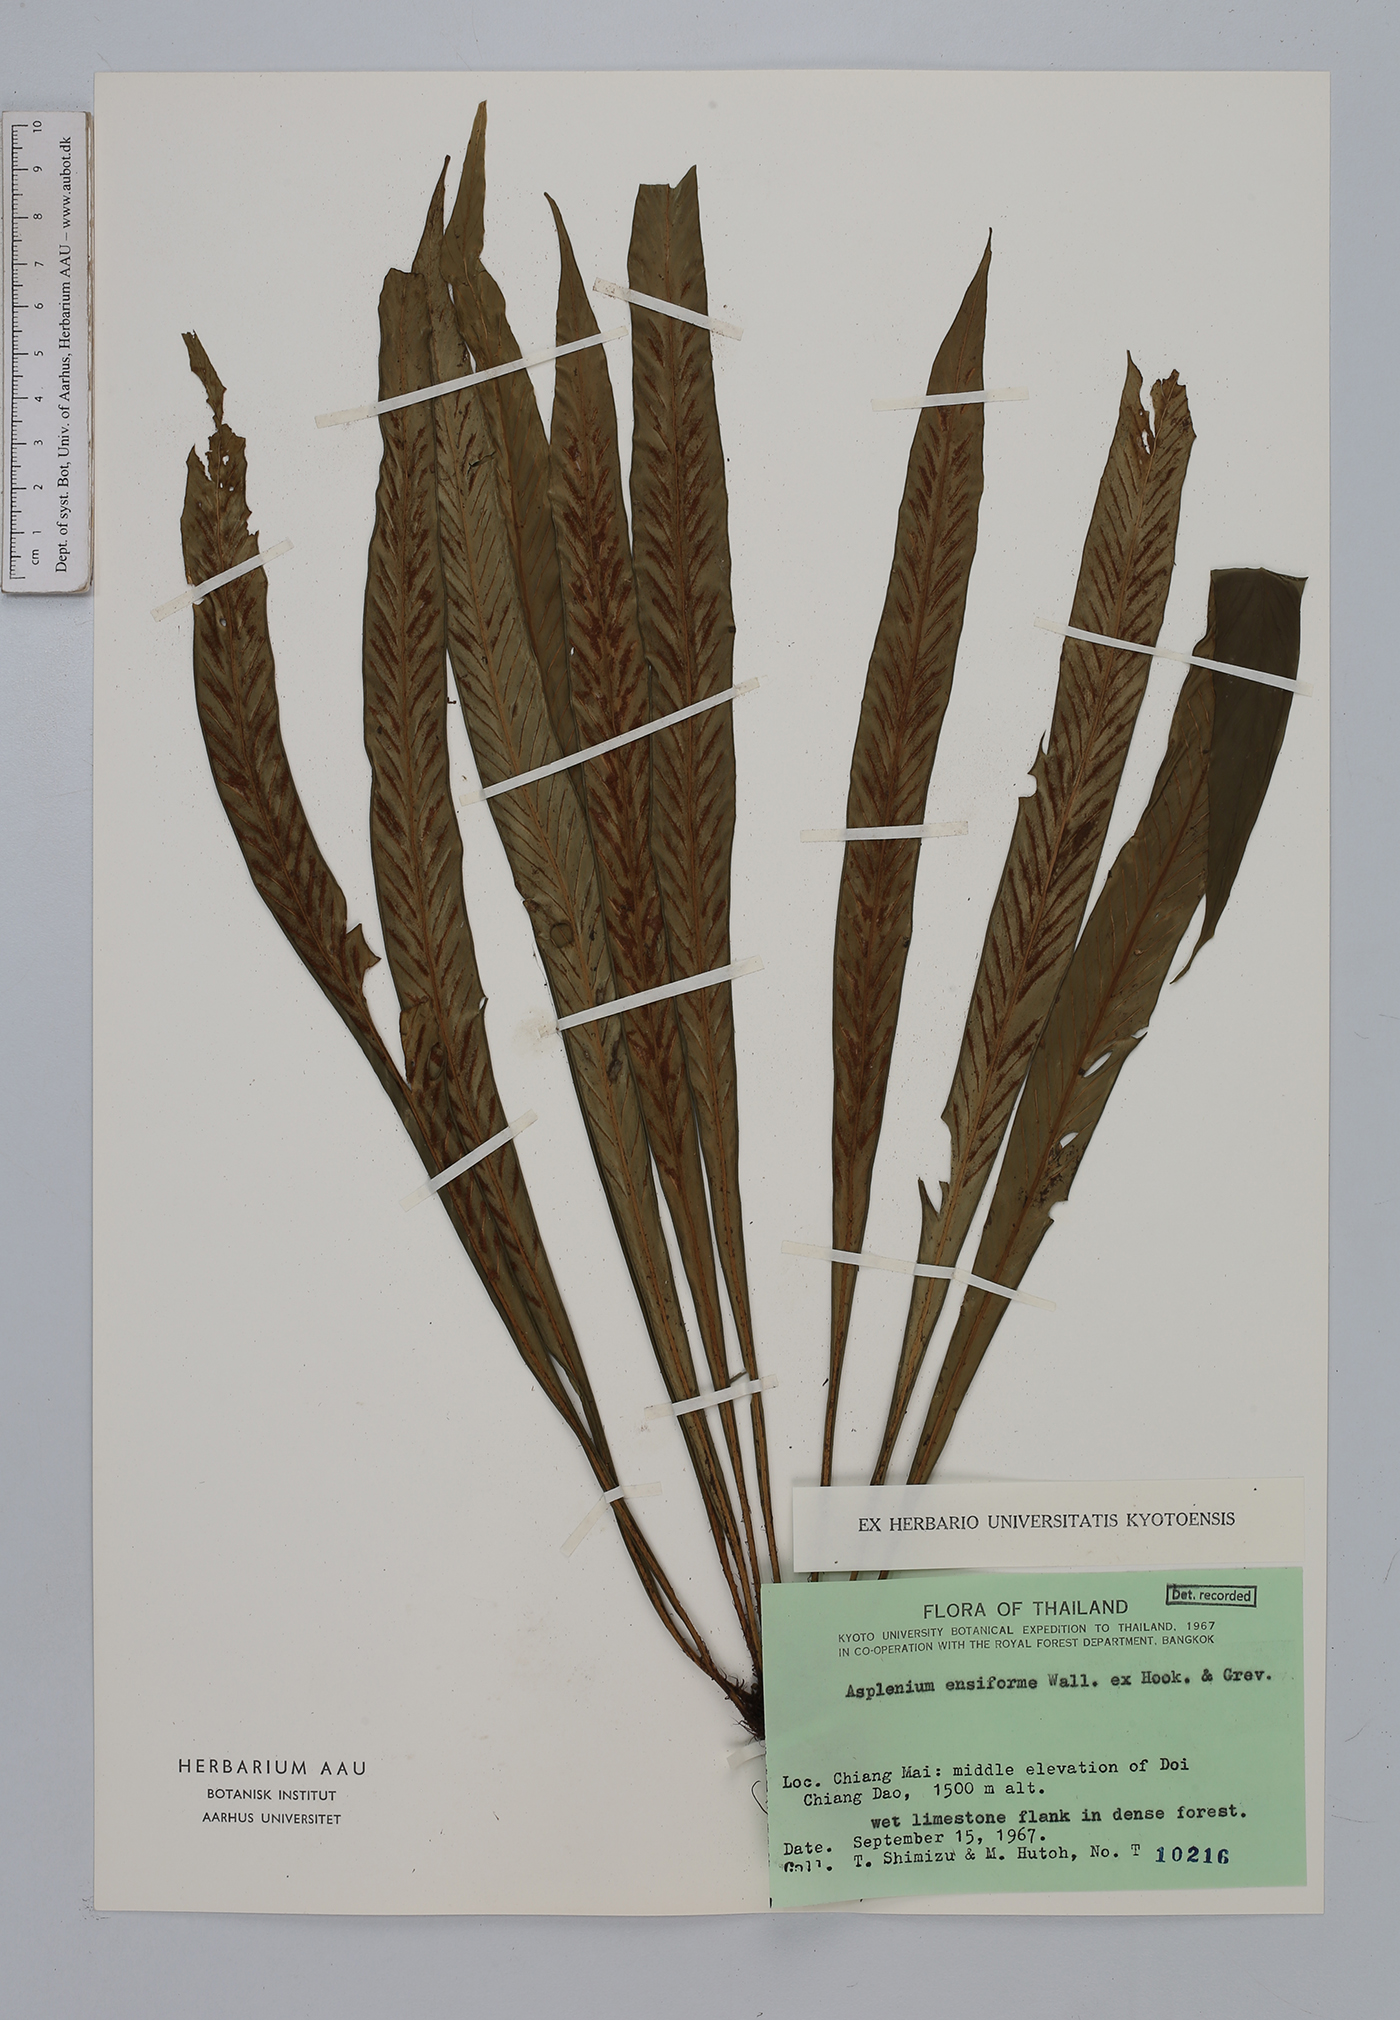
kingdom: Plantae
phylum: Tracheophyta
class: Polypodiopsida
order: Polypodiales
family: Aspleniaceae
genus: Asplenium
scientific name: Asplenium ensiforme
